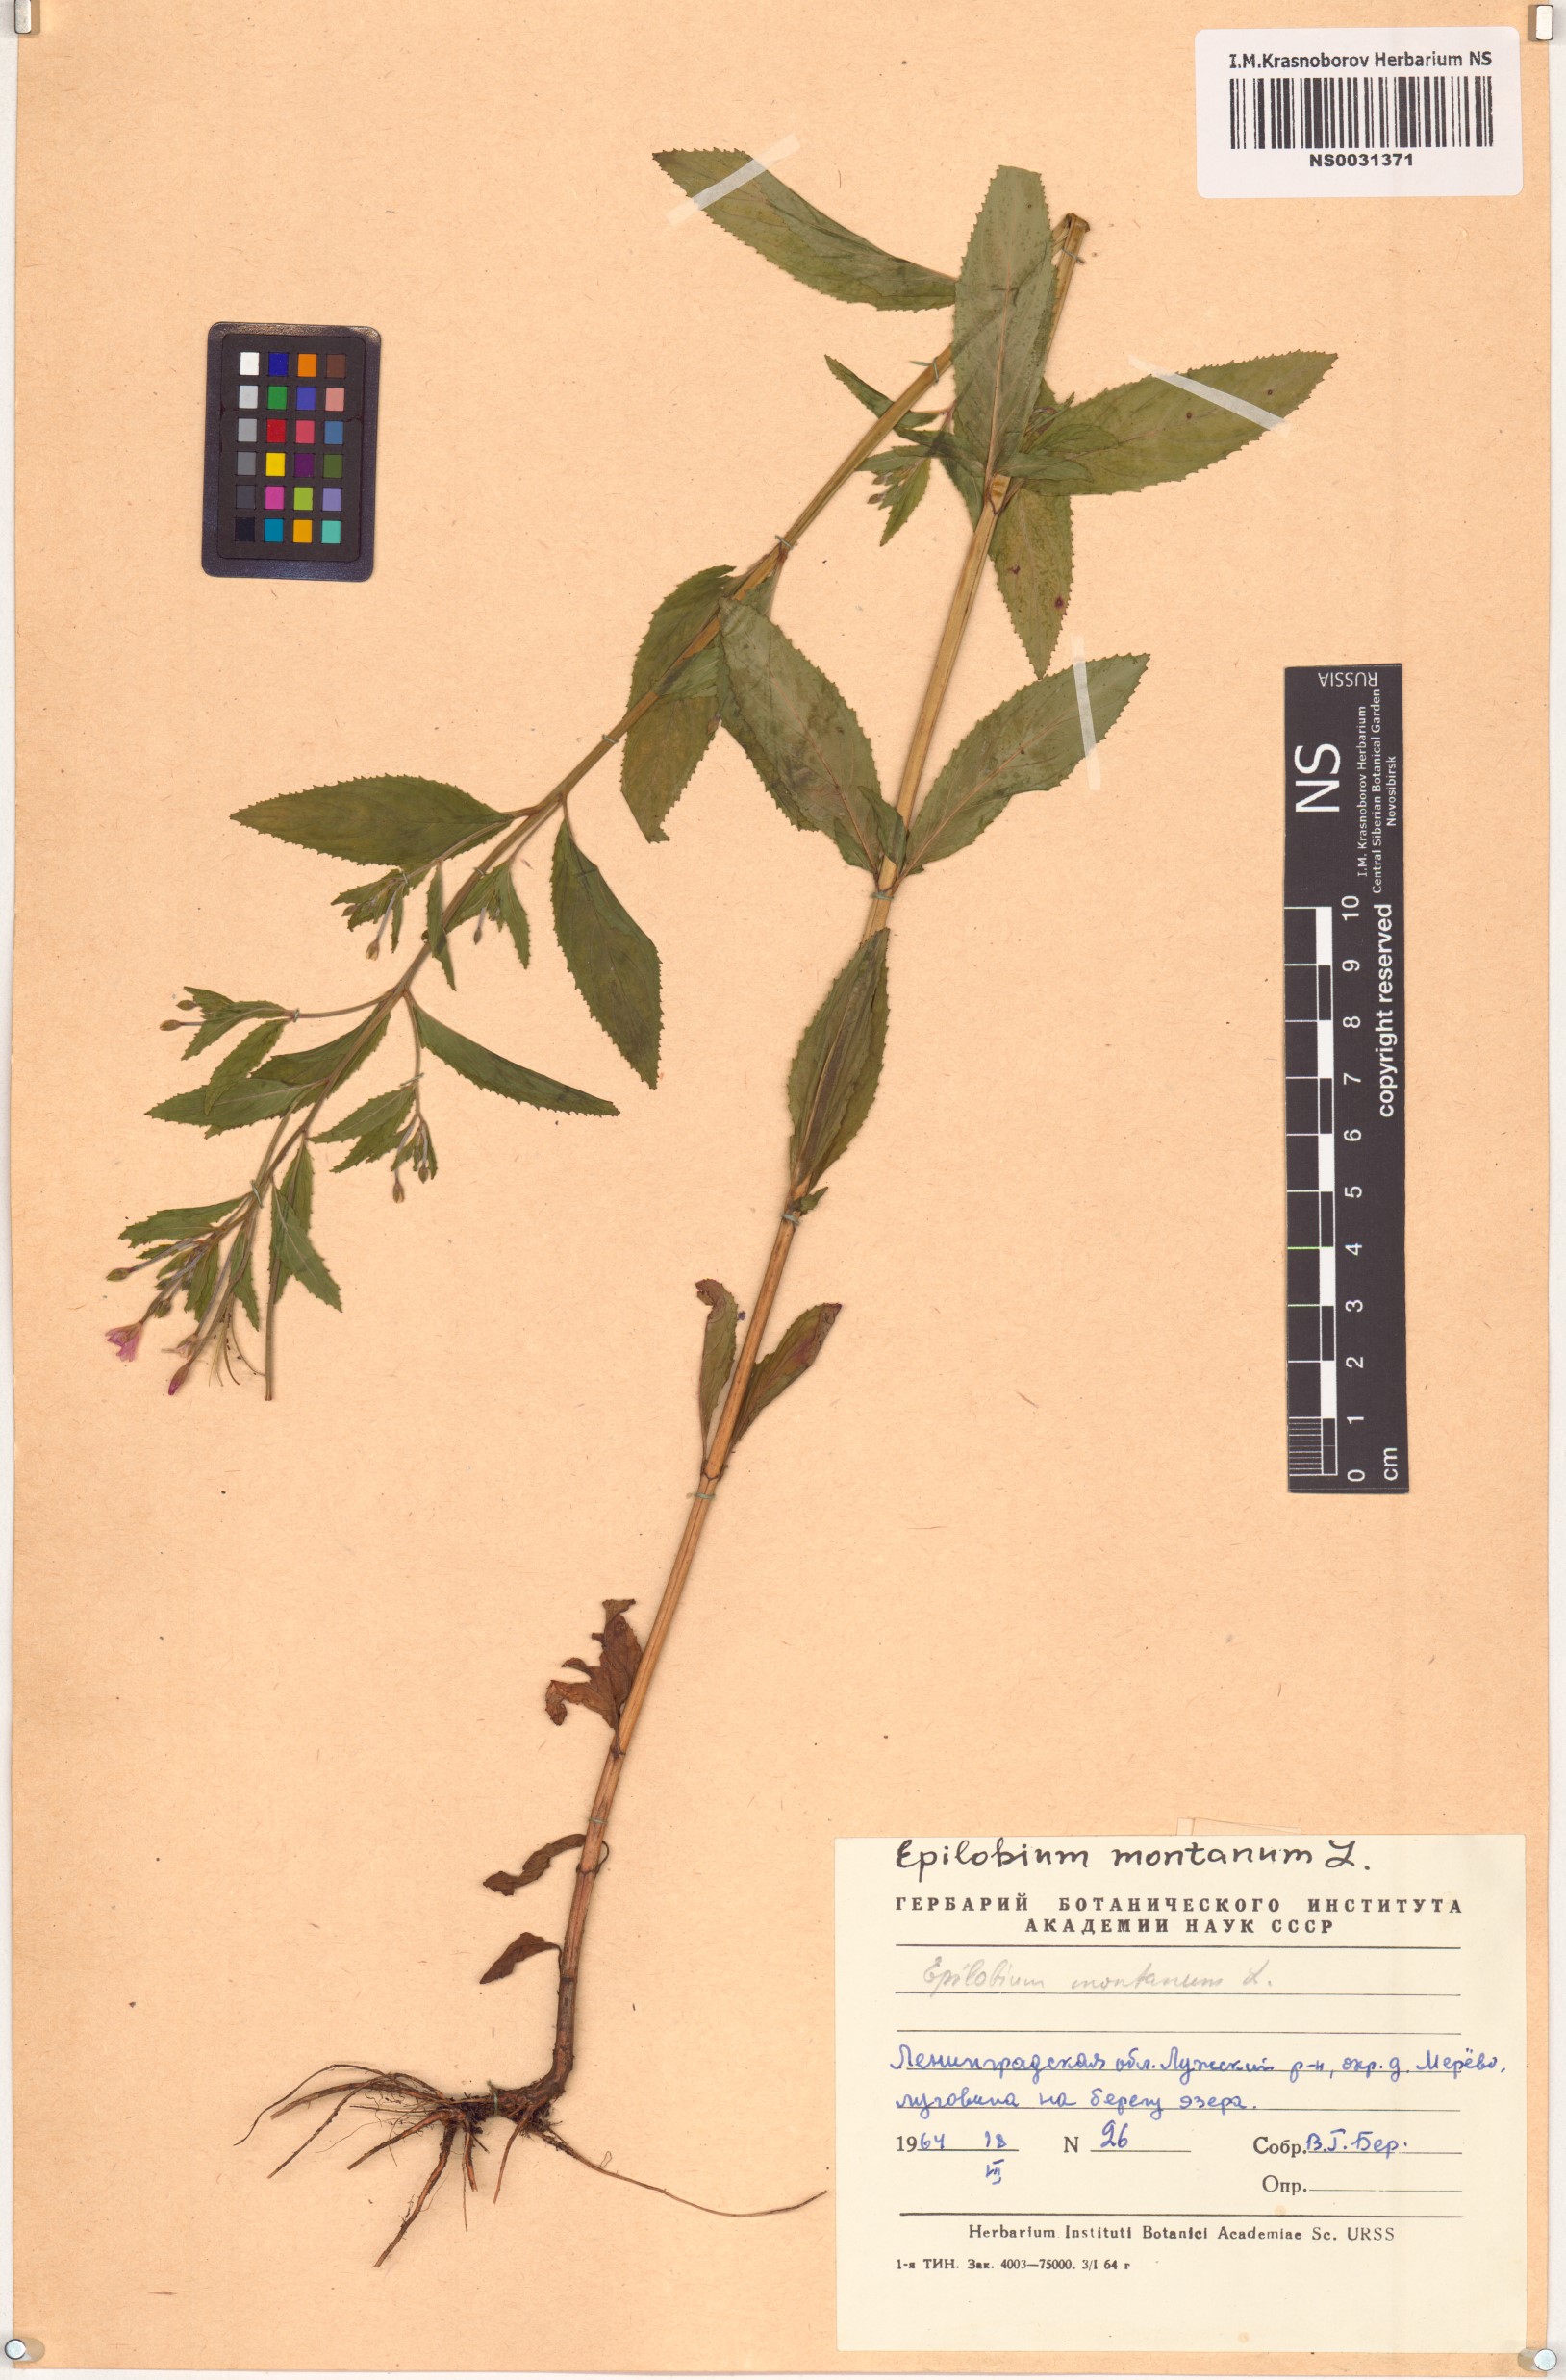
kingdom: Plantae
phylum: Tracheophyta
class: Magnoliopsida
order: Myrtales
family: Onagraceae
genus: Epilobium
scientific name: Epilobium montanum
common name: Broad-leaved willowherb
